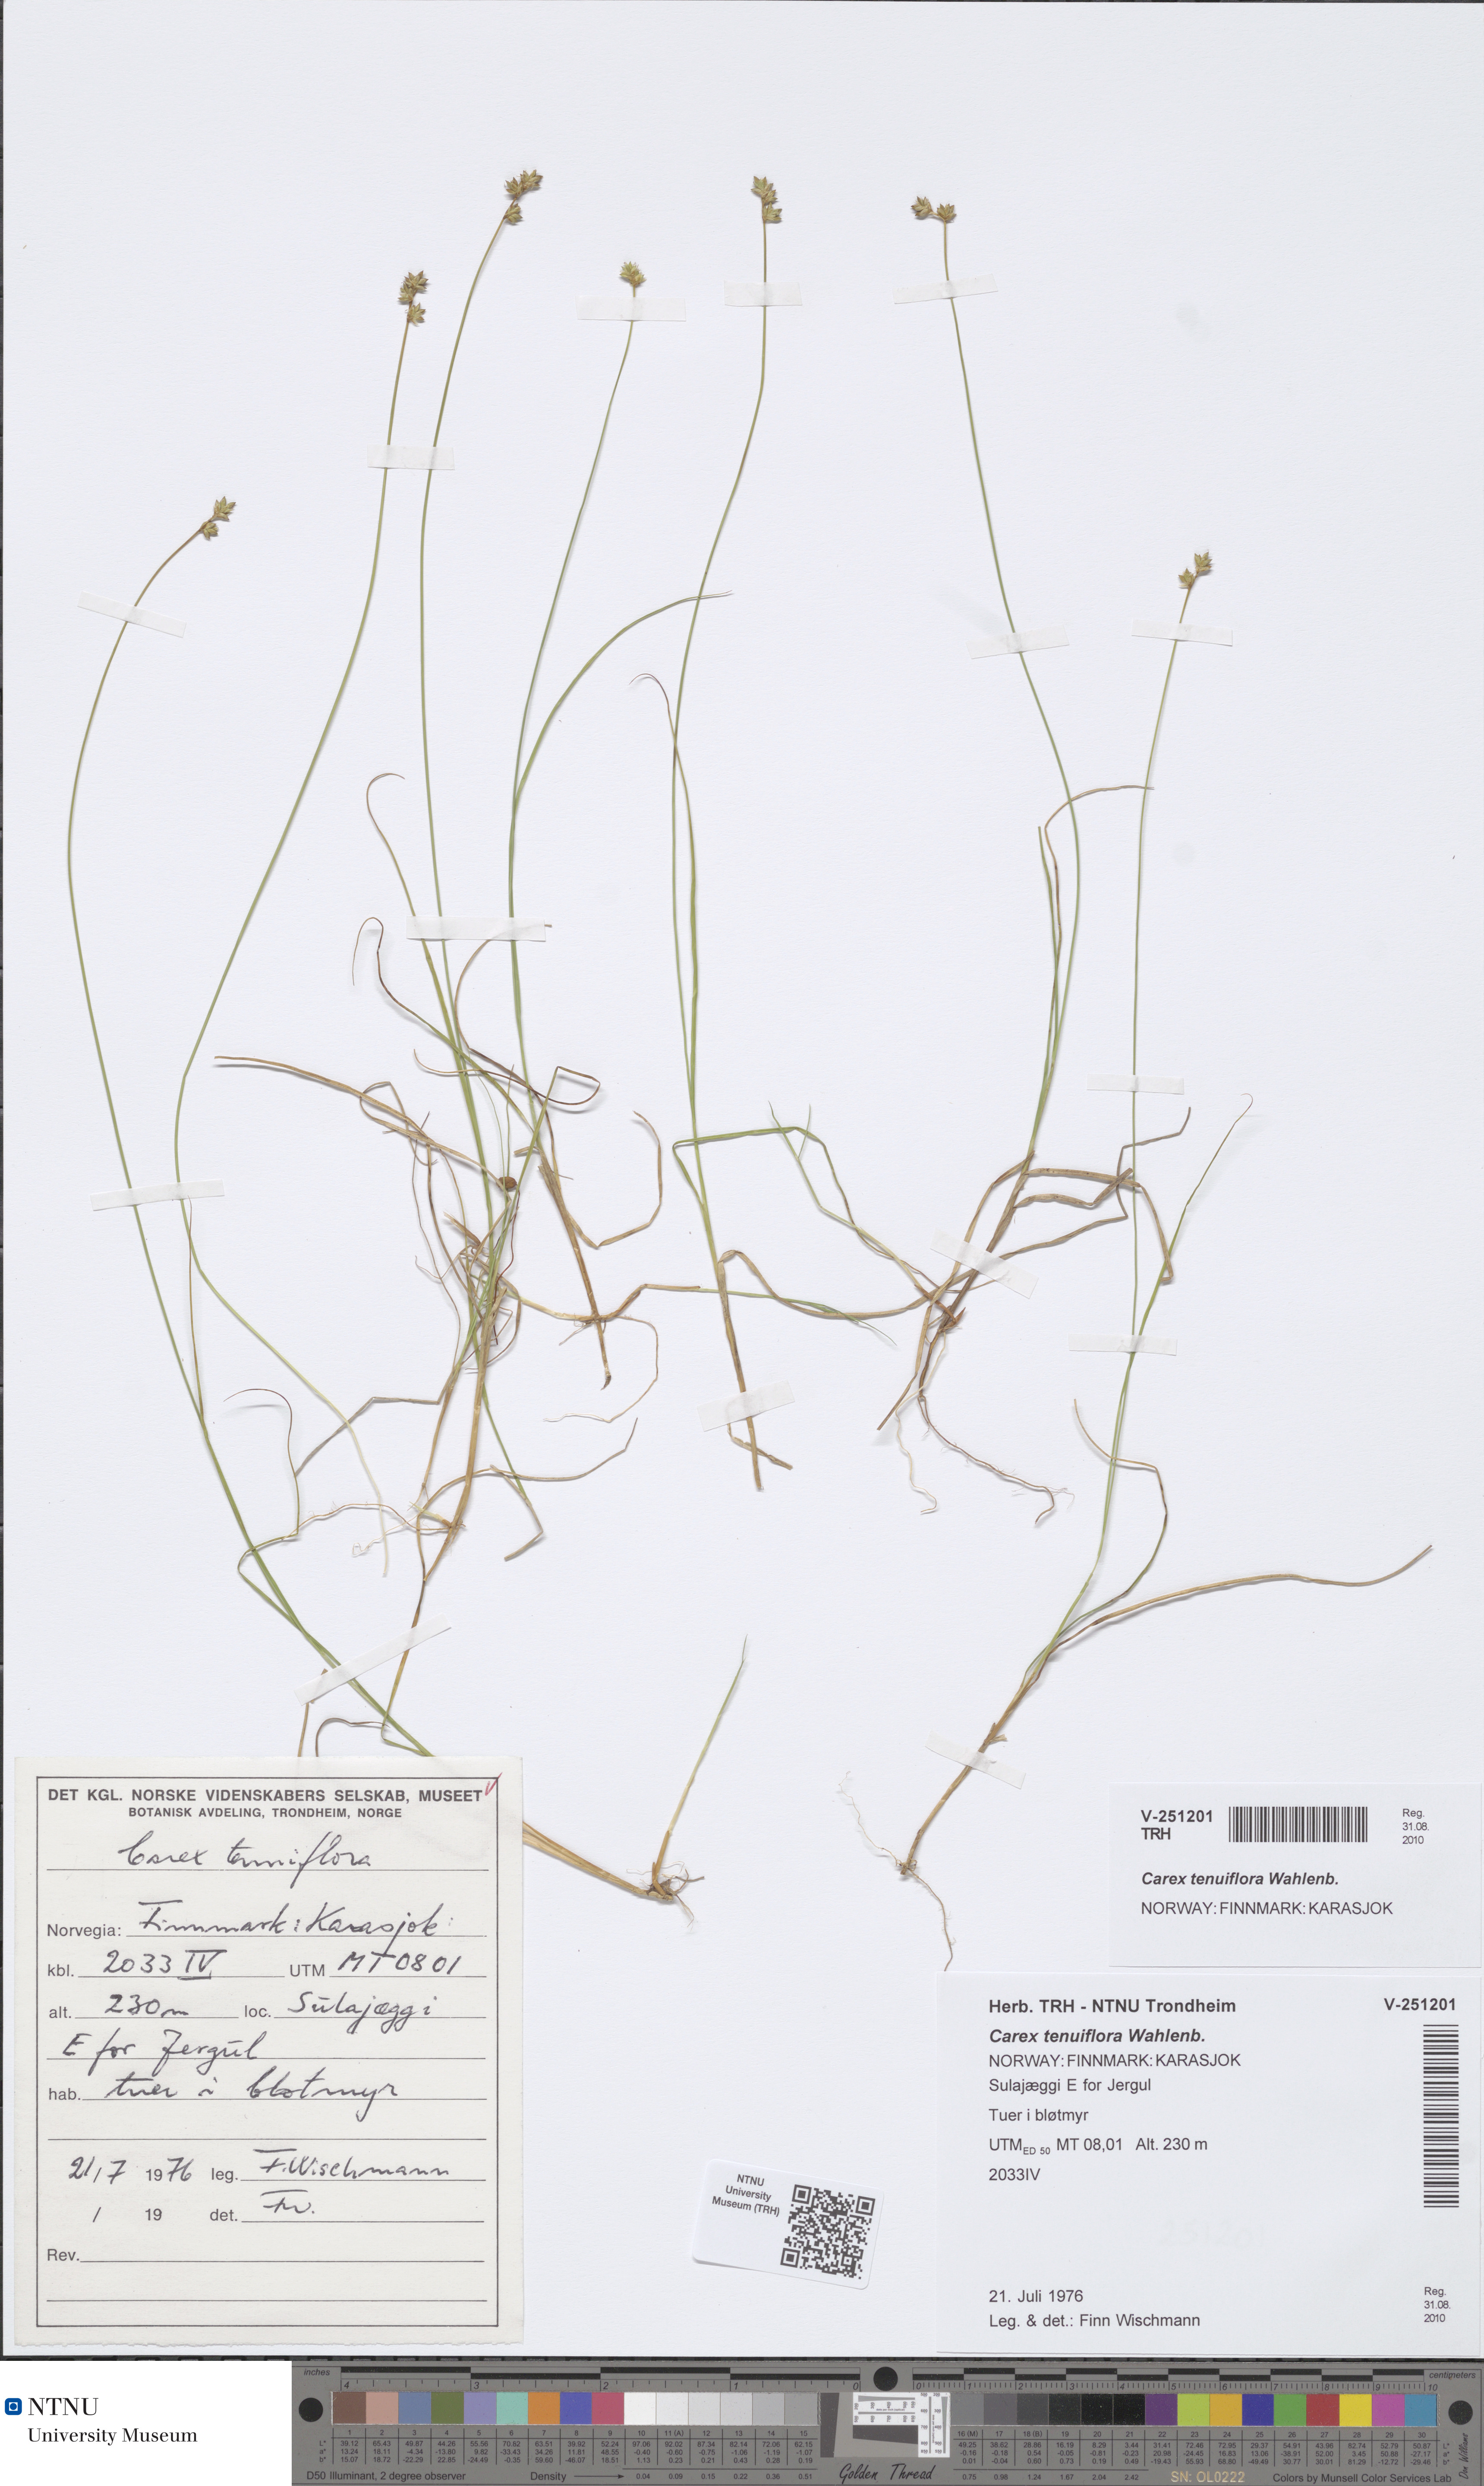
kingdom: Plantae
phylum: Tracheophyta
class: Liliopsida
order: Poales
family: Cyperaceae
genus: Carex
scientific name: Carex tenuiflora
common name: Sparse-flowered sedge
